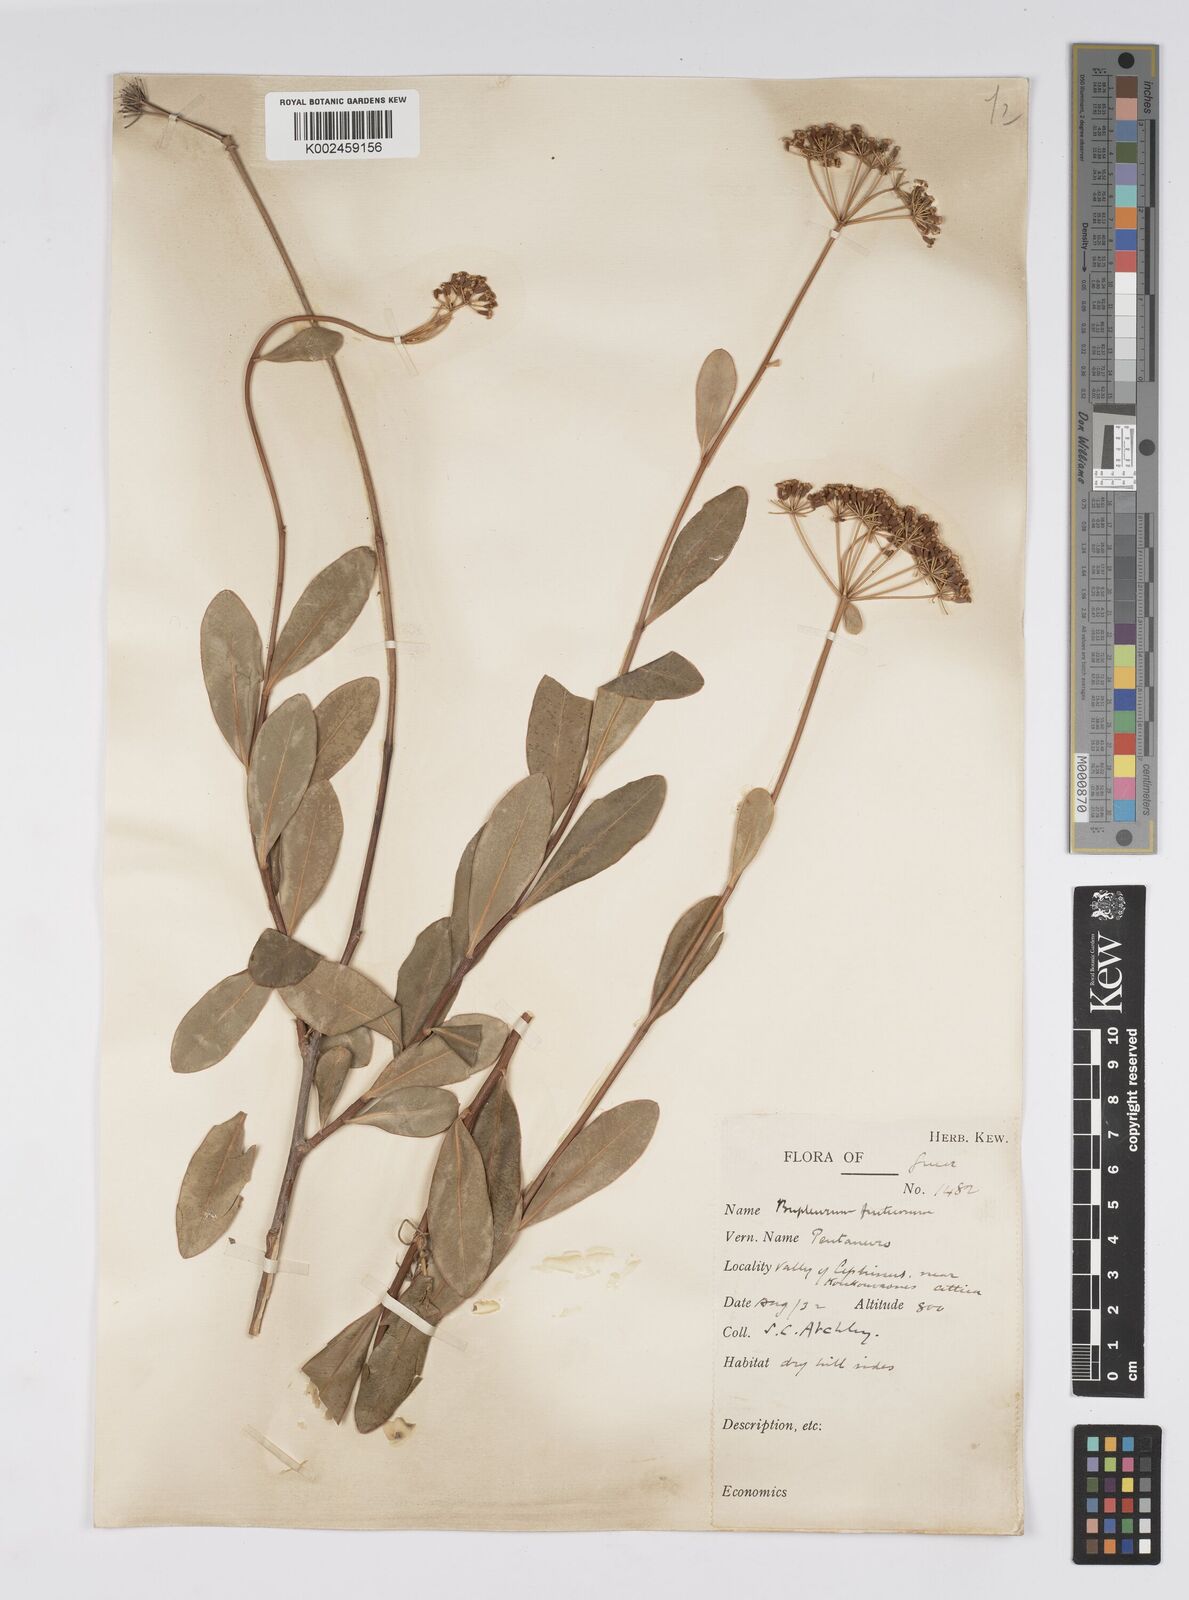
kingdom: Plantae
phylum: Tracheophyta
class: Magnoliopsida
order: Apiales
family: Apiaceae
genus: Bupleurum
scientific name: Bupleurum fruticosum
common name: Shrubby hare's-ear
